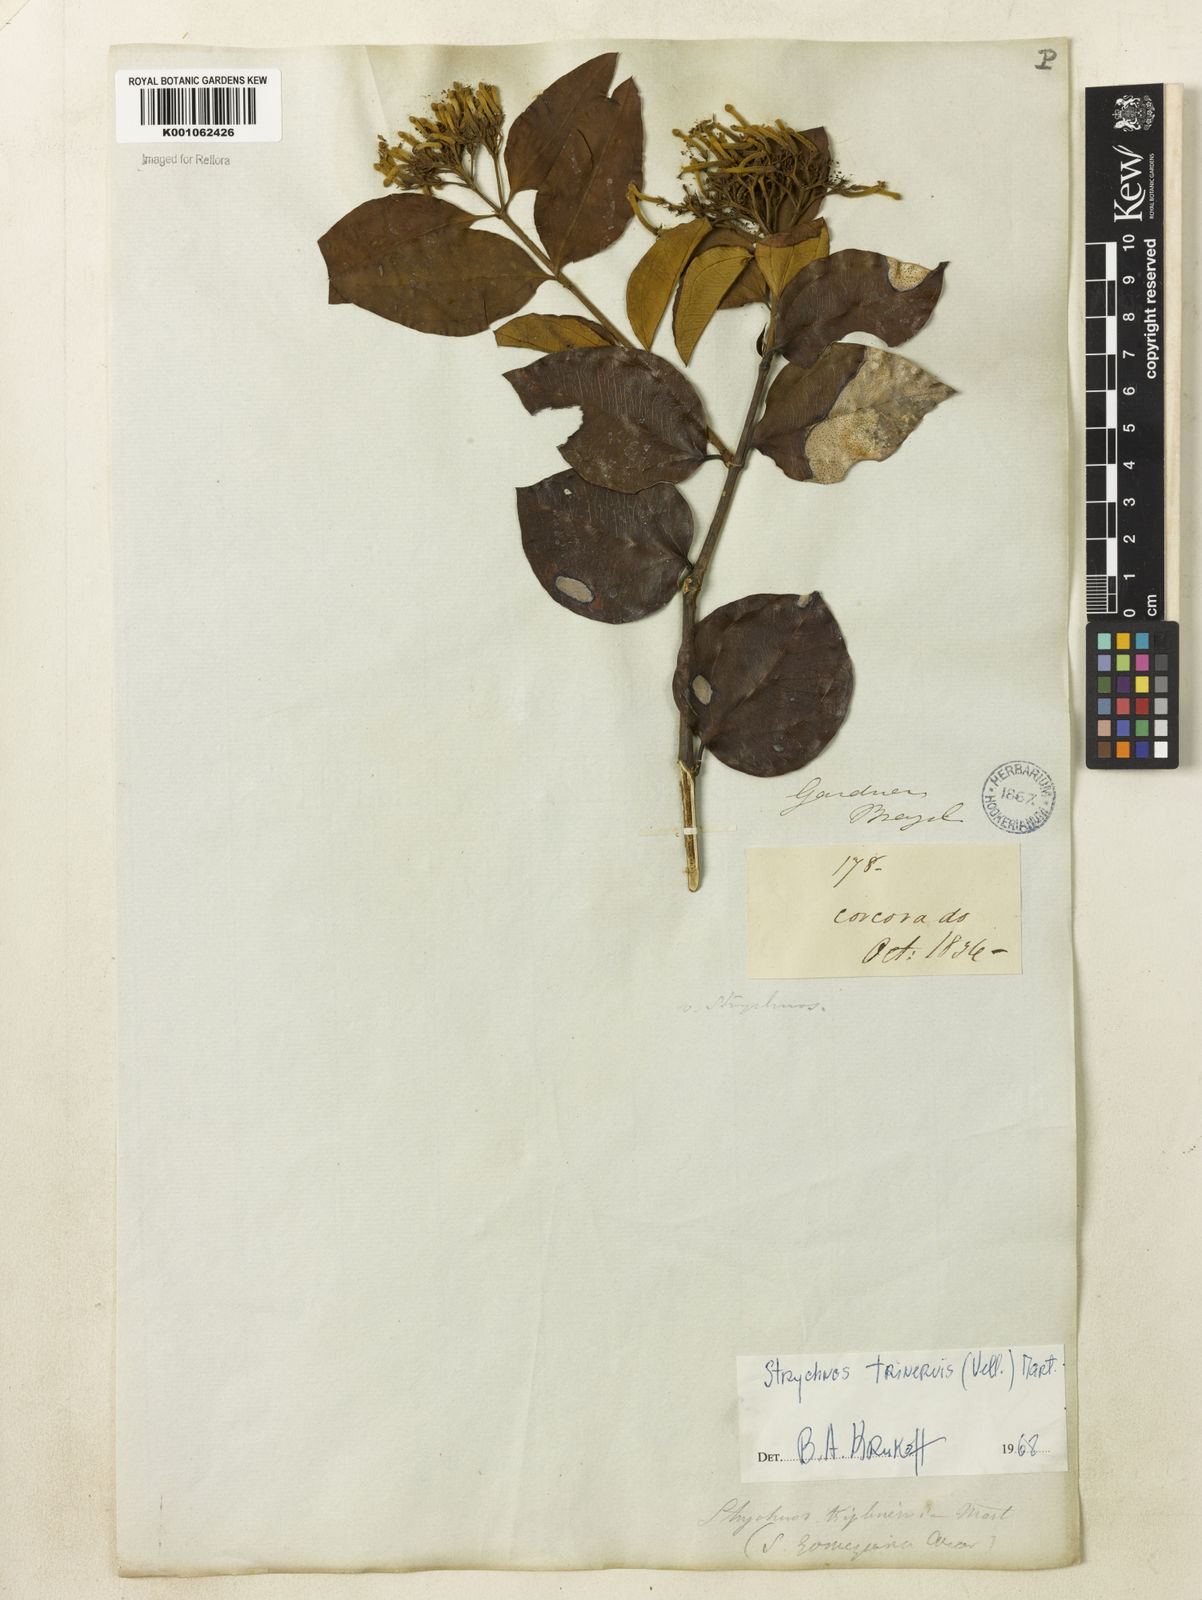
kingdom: Plantae
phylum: Tracheophyta
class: Magnoliopsida
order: Gentianales
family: Loganiaceae
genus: Strychnos
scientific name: Strychnos
